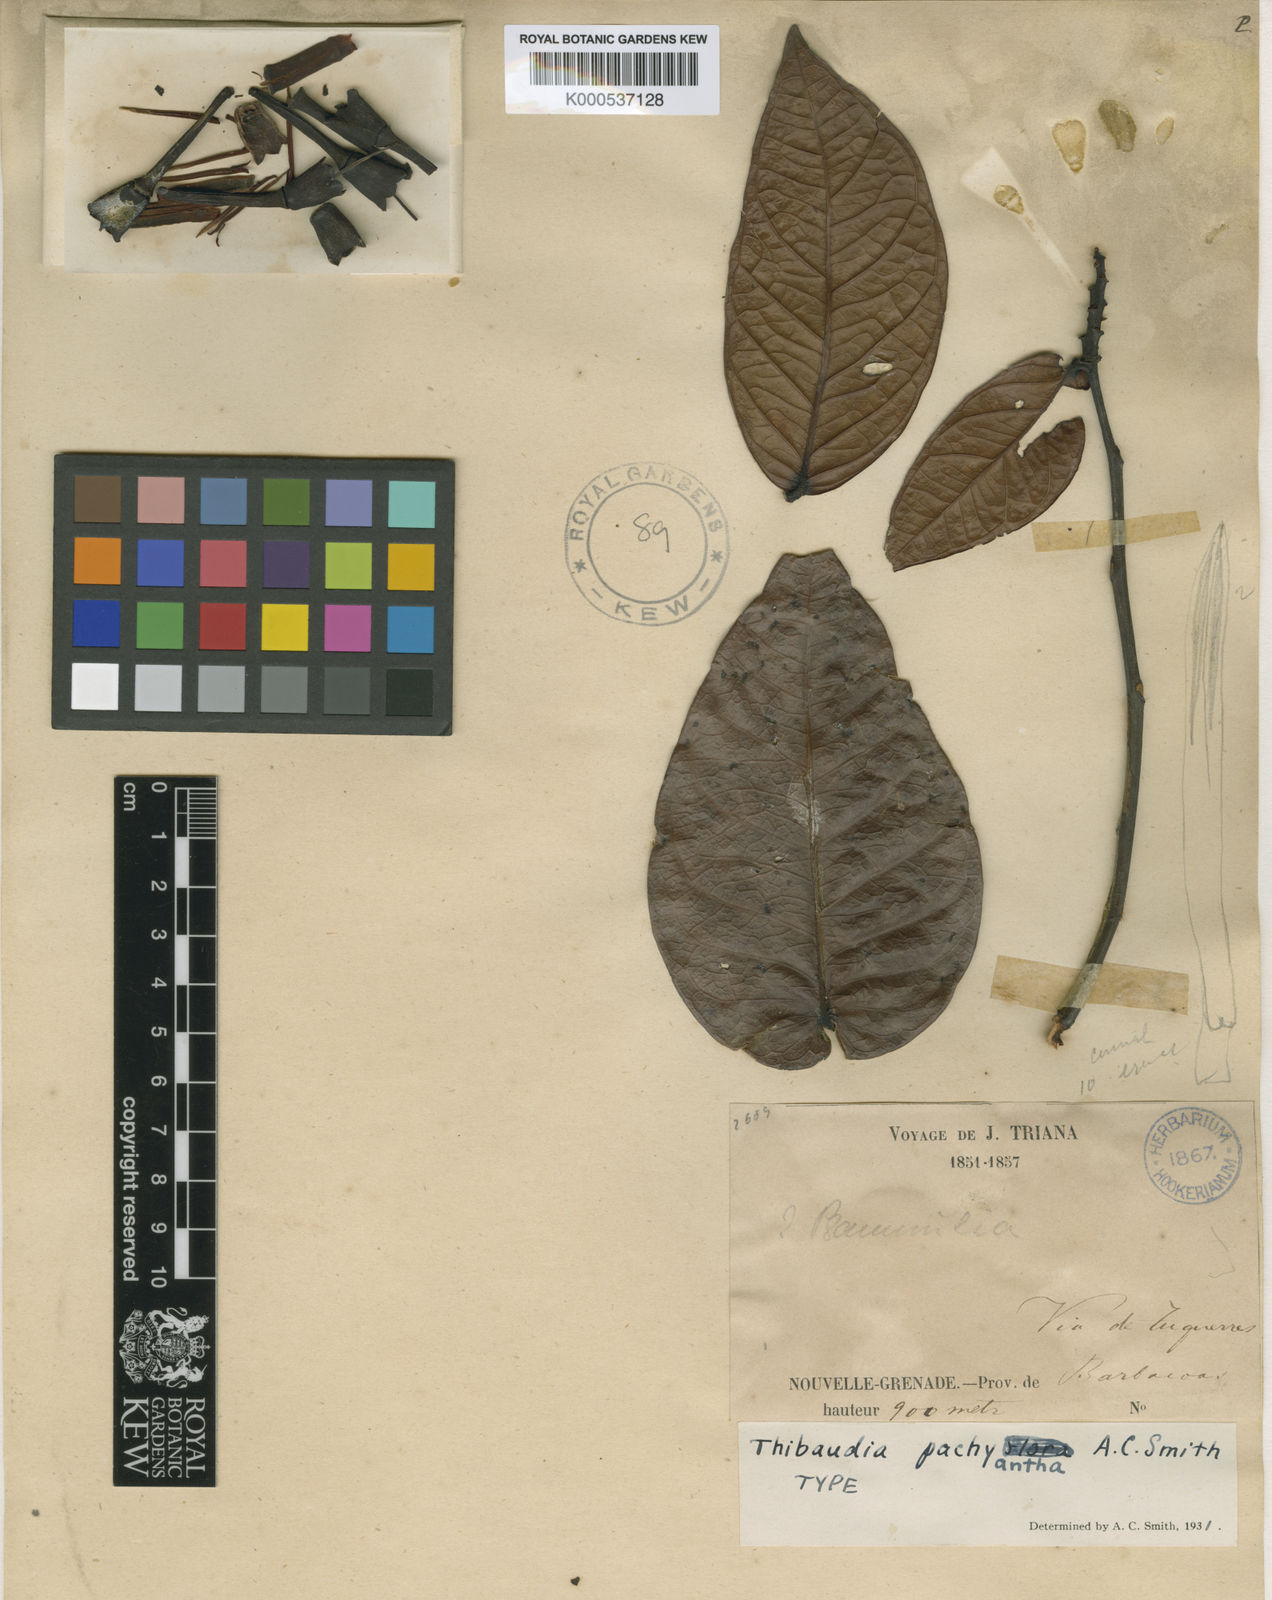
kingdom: Plantae
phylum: Tracheophyta
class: Magnoliopsida
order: Ericales
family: Ericaceae
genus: Thibaudia
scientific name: Thibaudia pachyantha
